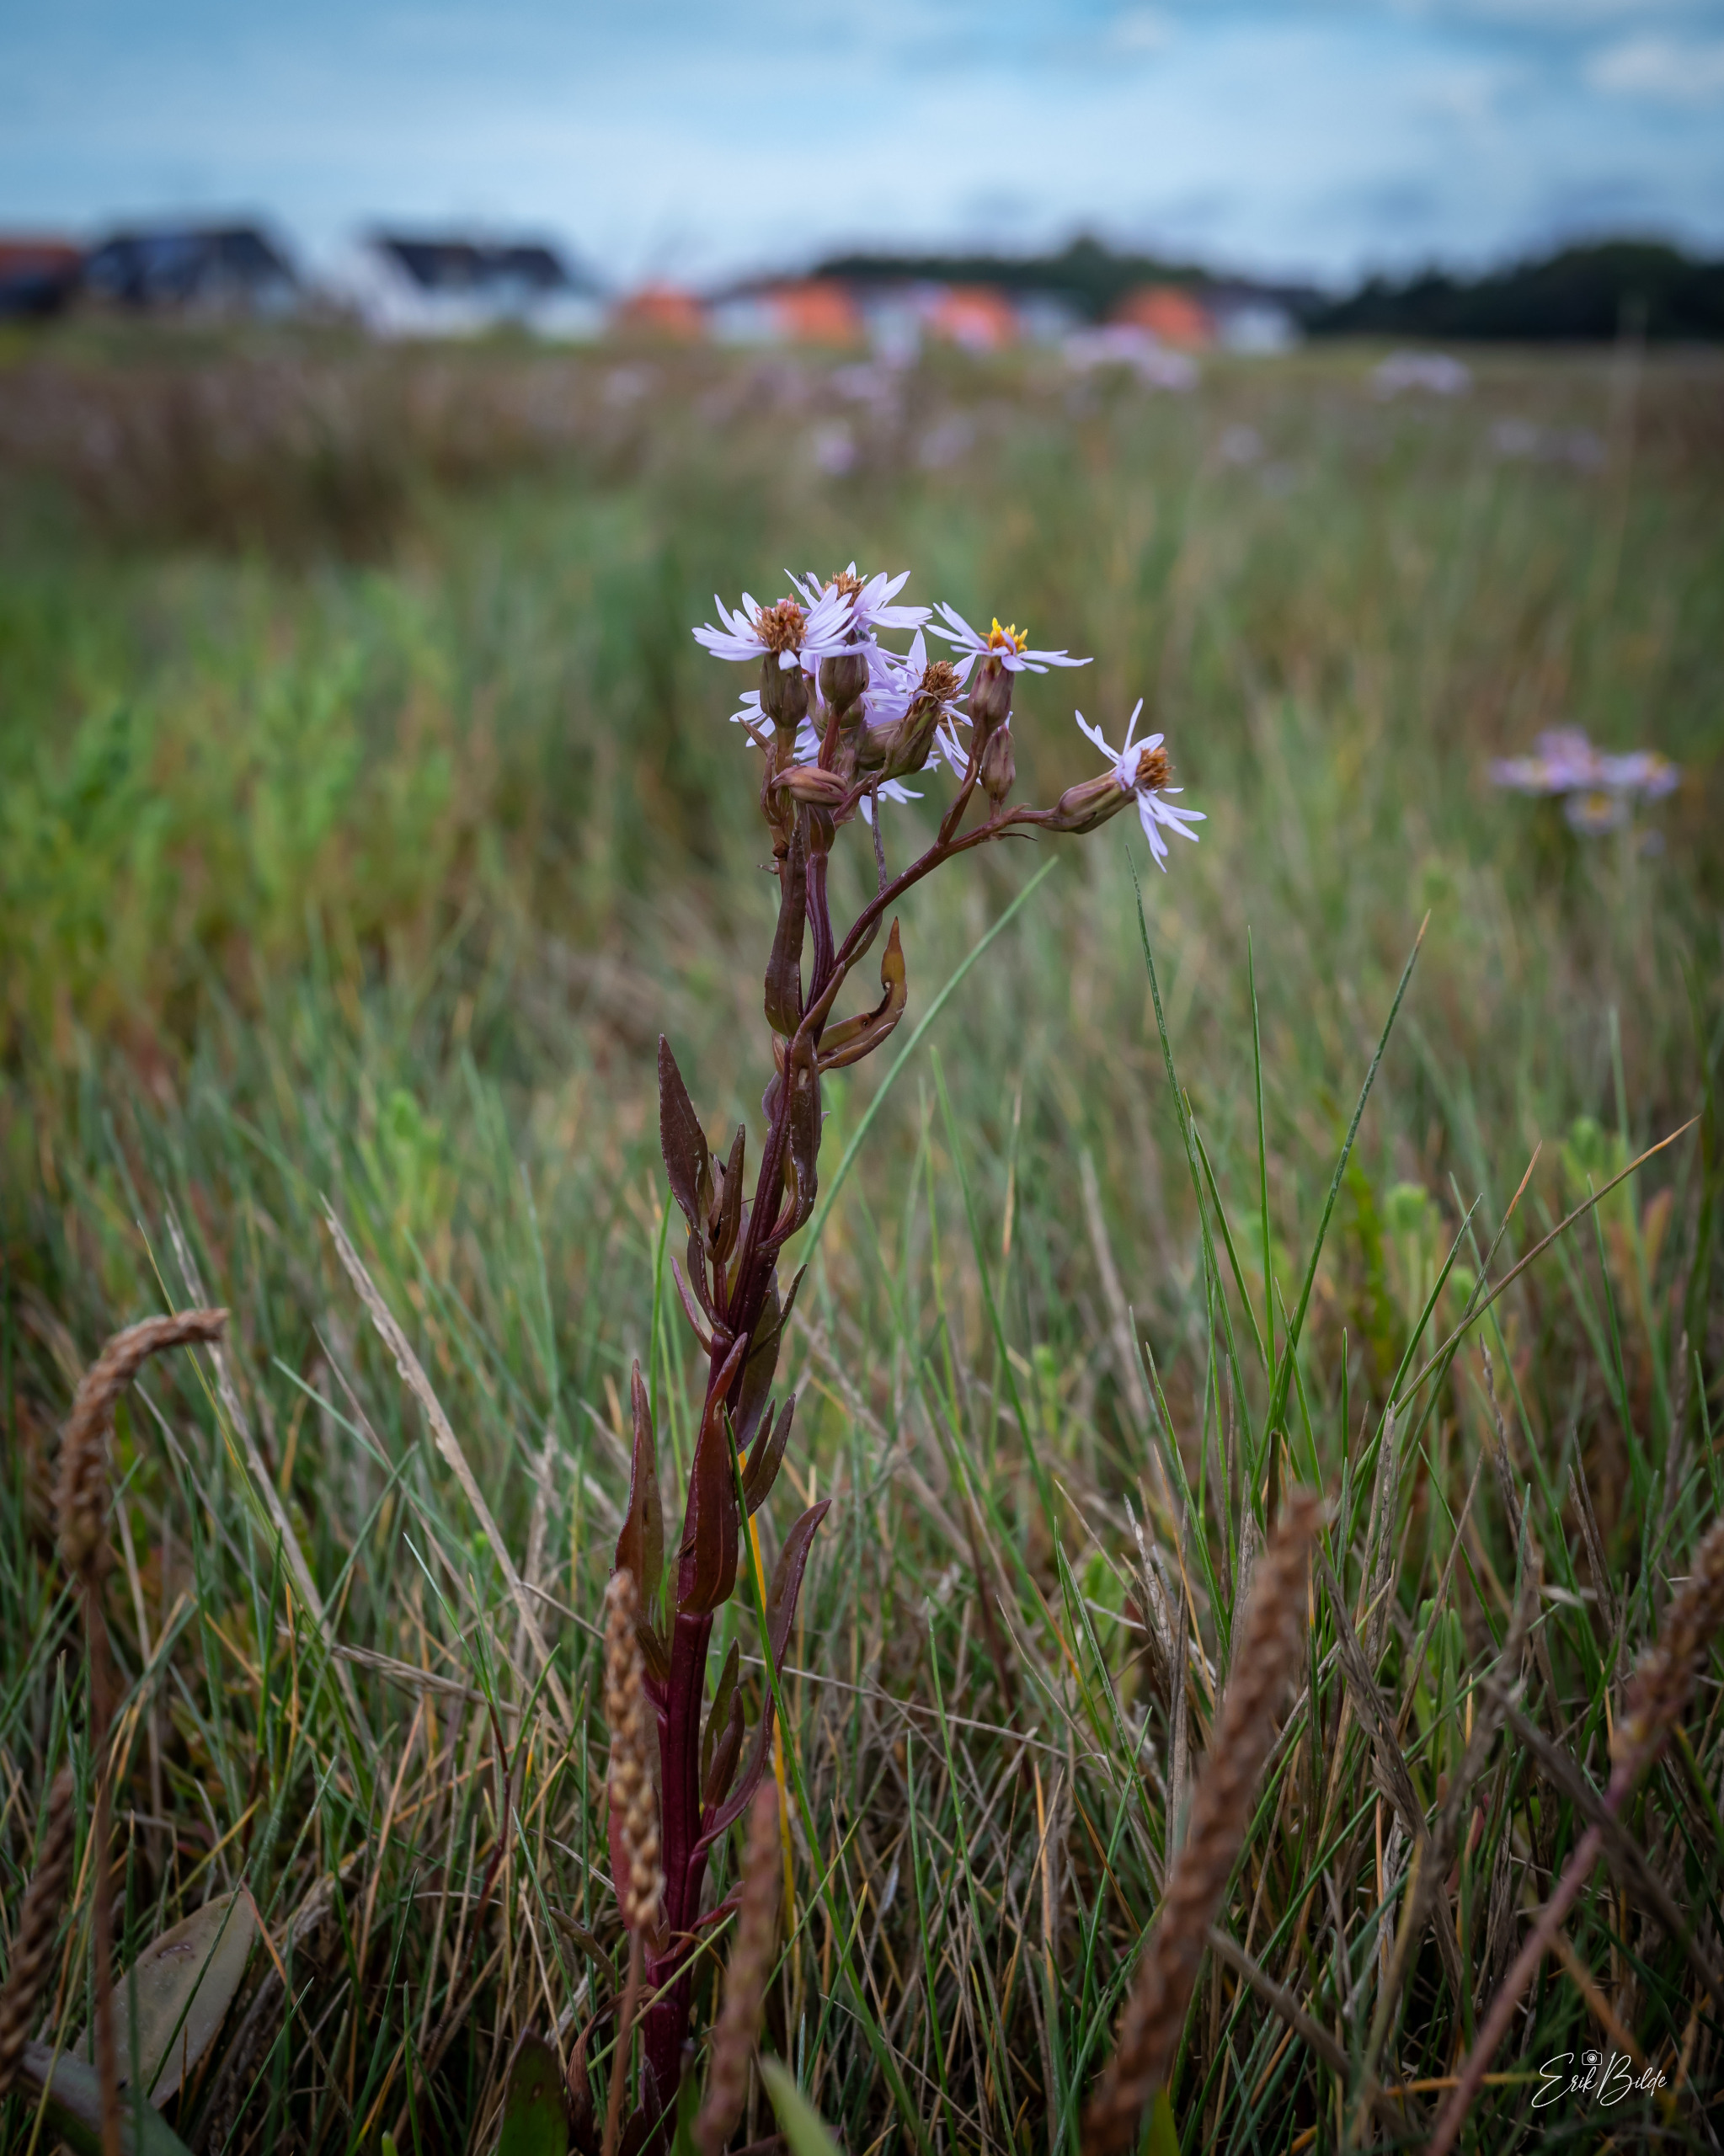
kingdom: Plantae
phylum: Tracheophyta
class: Magnoliopsida
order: Asterales
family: Asteraceae
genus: Tripolium
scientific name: Tripolium pannonicum
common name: Strandasters
